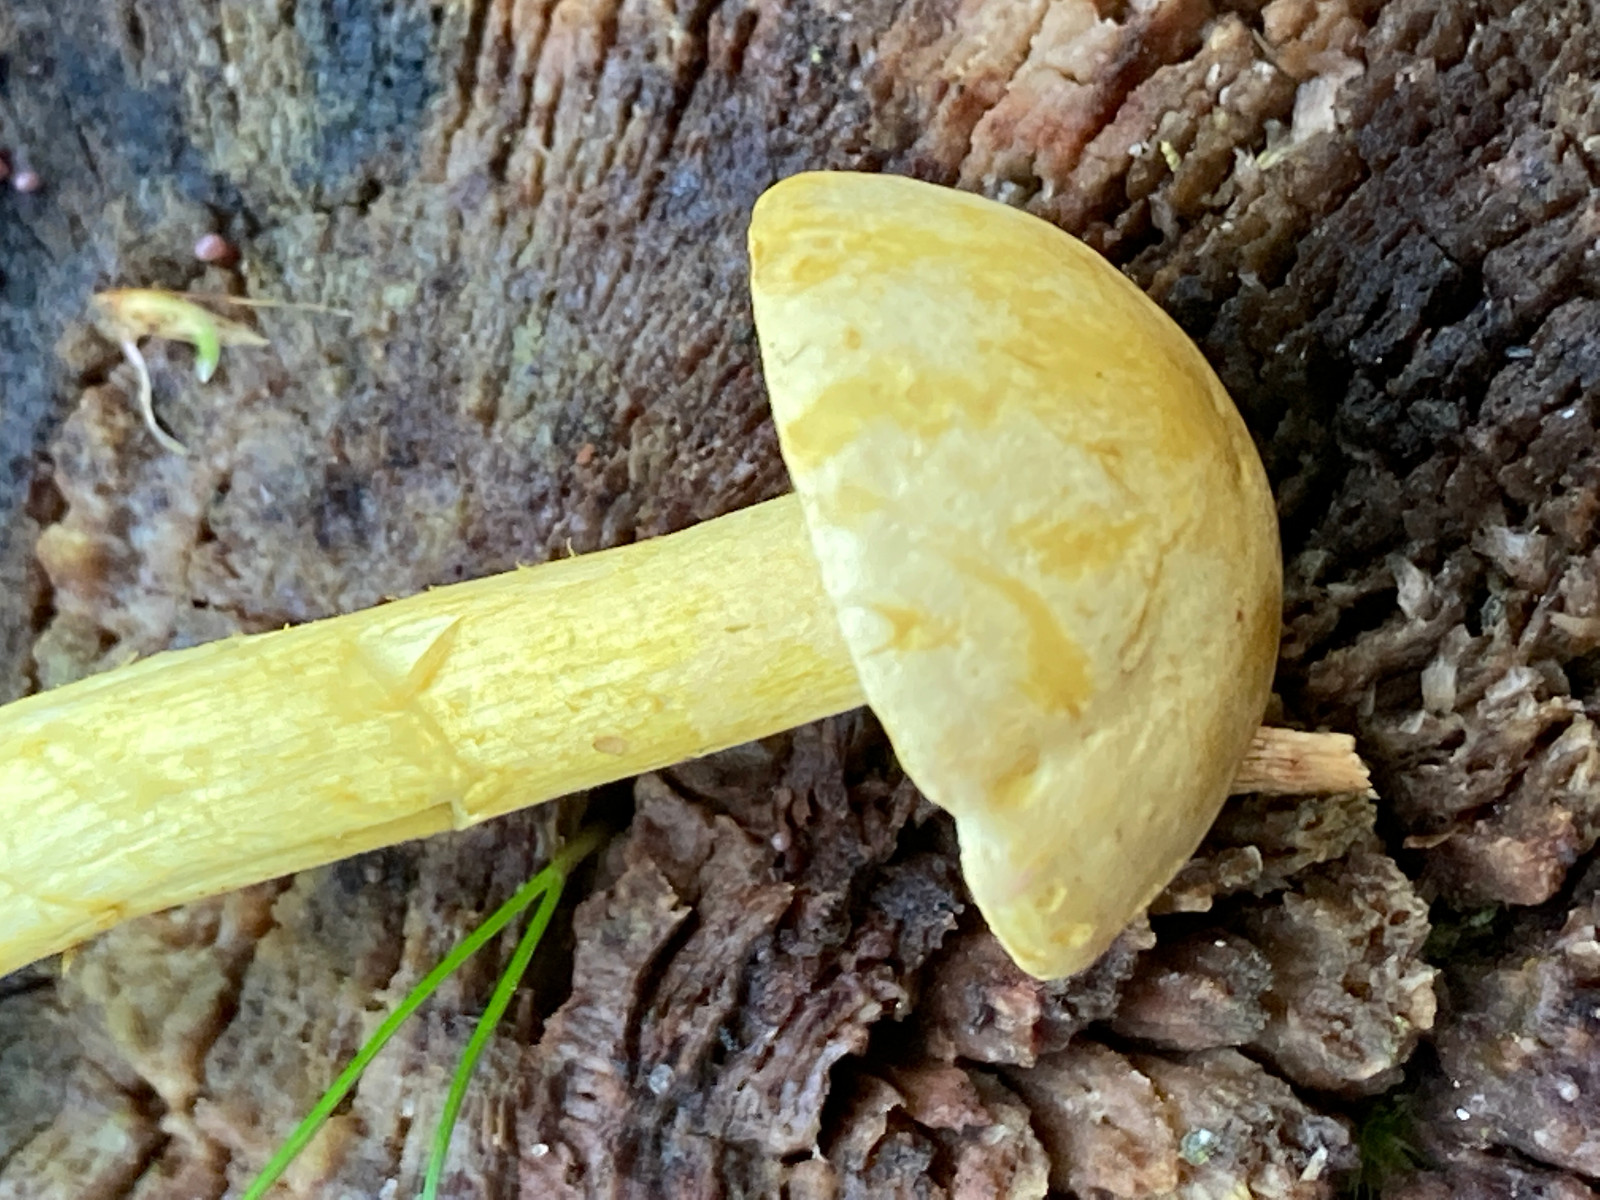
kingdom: Fungi
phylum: Basidiomycota
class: Agaricomycetes
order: Agaricales
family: Tricholomataceae
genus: Tricholoma
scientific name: Tricholoma sulphureum
